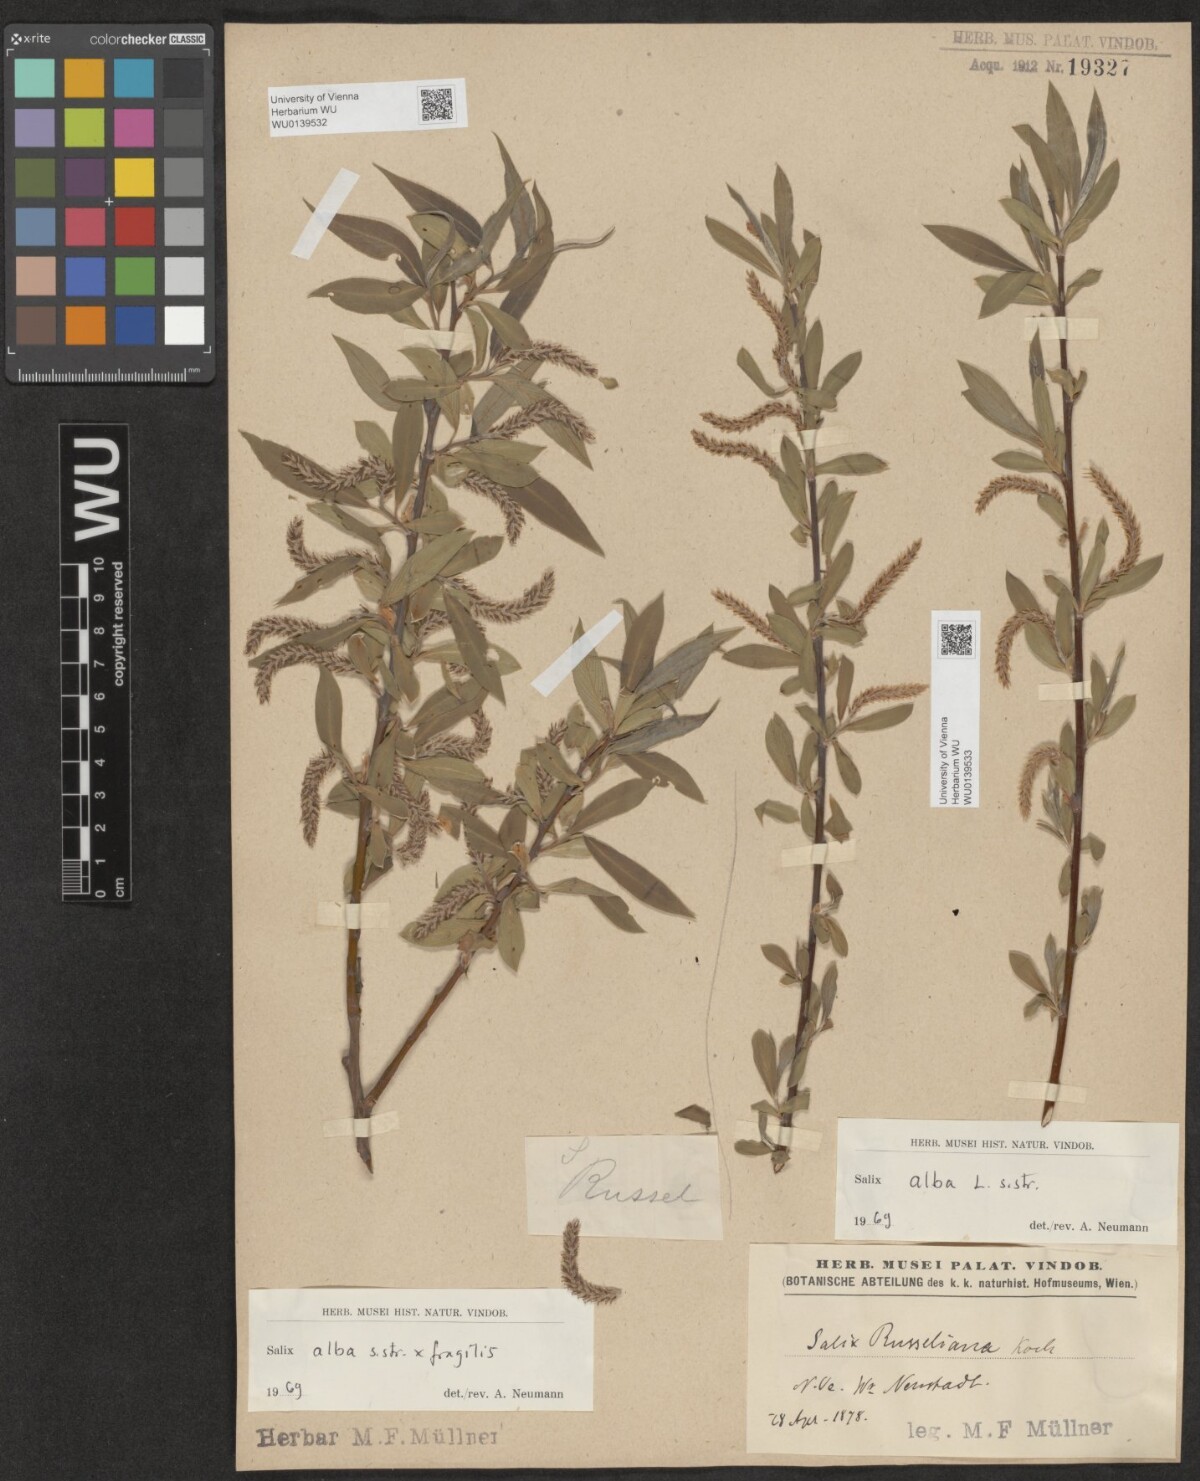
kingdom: Plantae
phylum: Tracheophyta
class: Magnoliopsida
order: Malpighiales
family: Salicaceae
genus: Salix
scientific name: Salix rubens
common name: Hybrid crack willow
